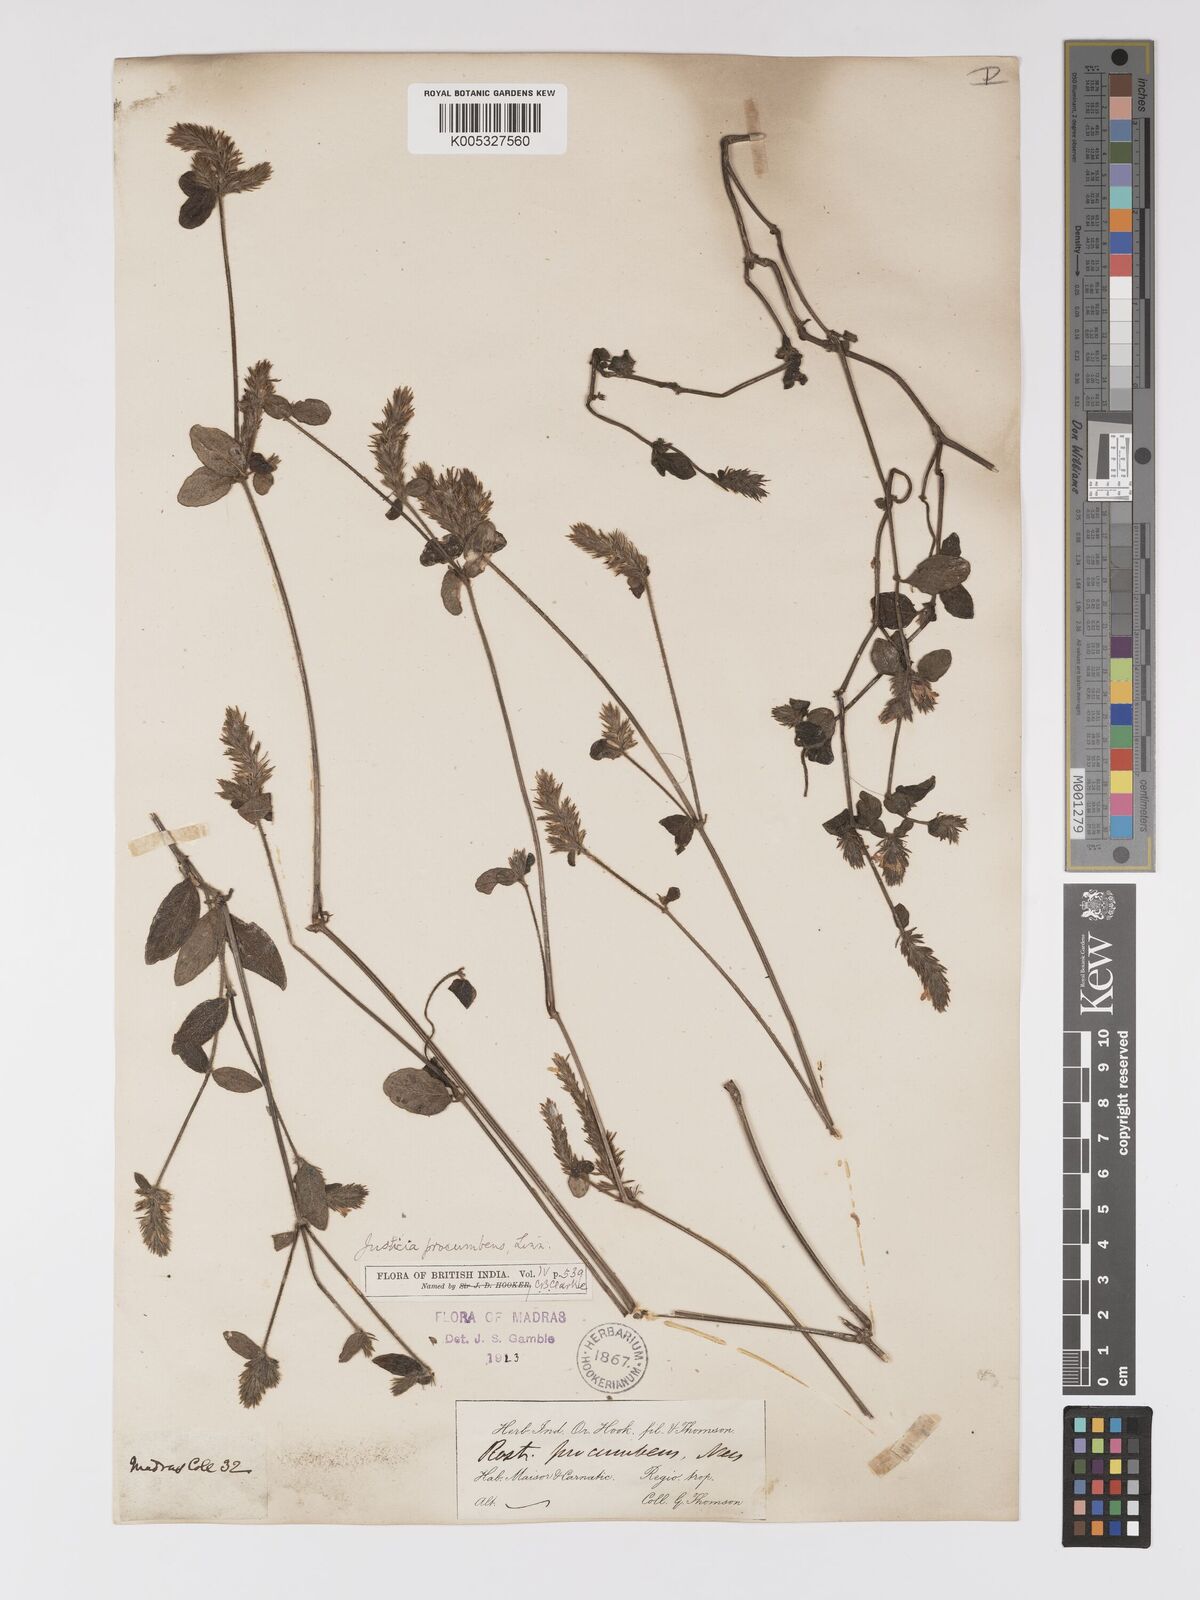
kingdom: Plantae
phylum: Tracheophyta
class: Magnoliopsida
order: Lamiales
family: Acanthaceae
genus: Justicia
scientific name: Justicia
